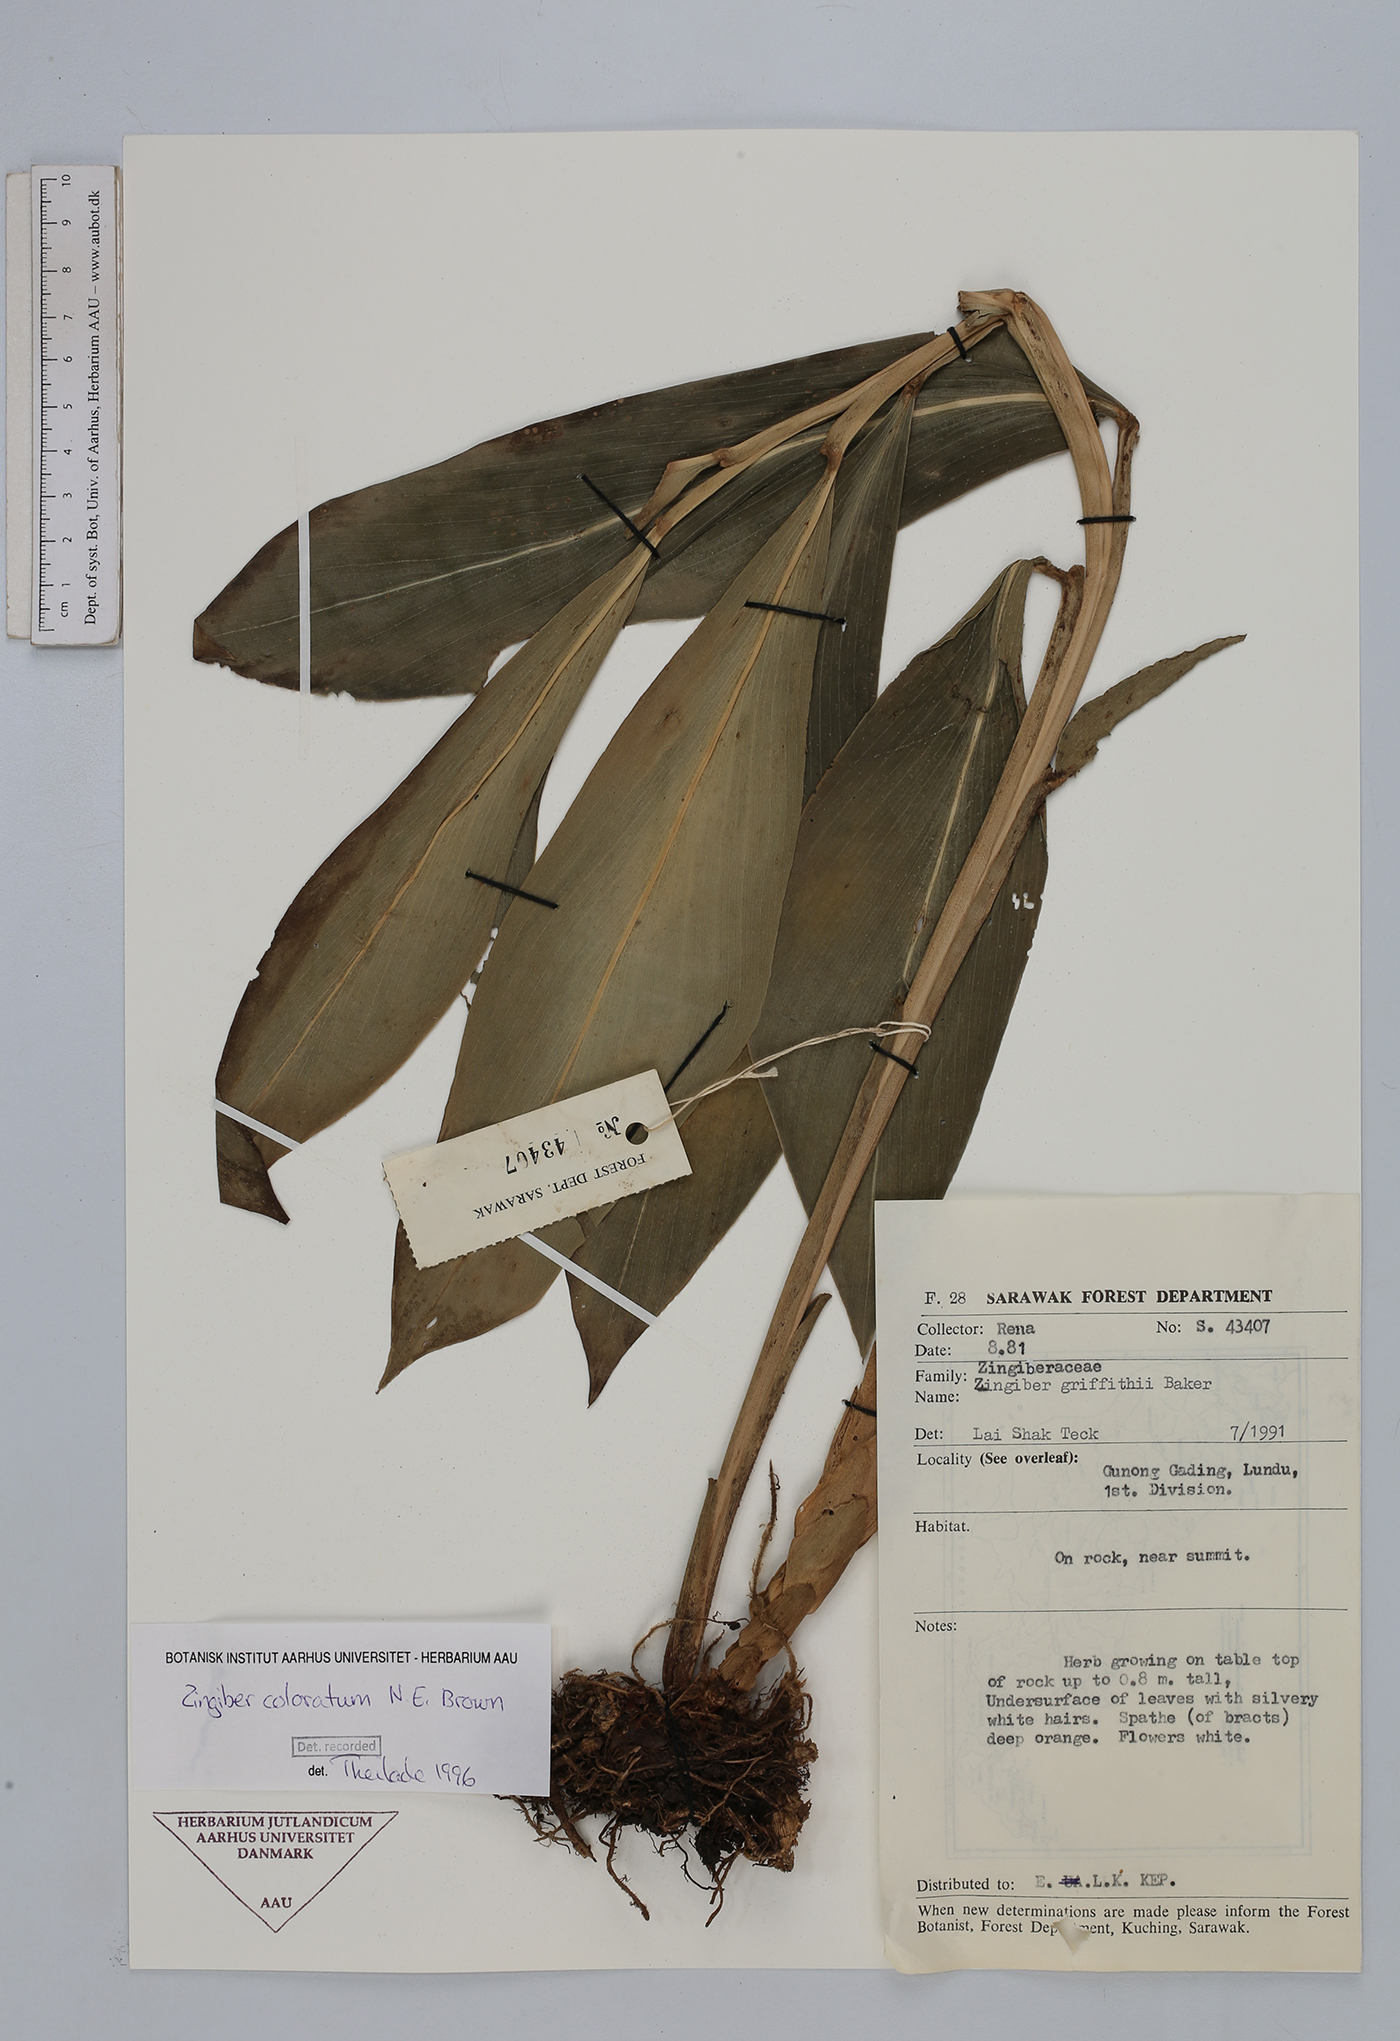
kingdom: Plantae
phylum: Tracheophyta
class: Liliopsida
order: Zingiberales
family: Zingiberaceae
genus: Zingiber
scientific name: Zingiber coloratum
